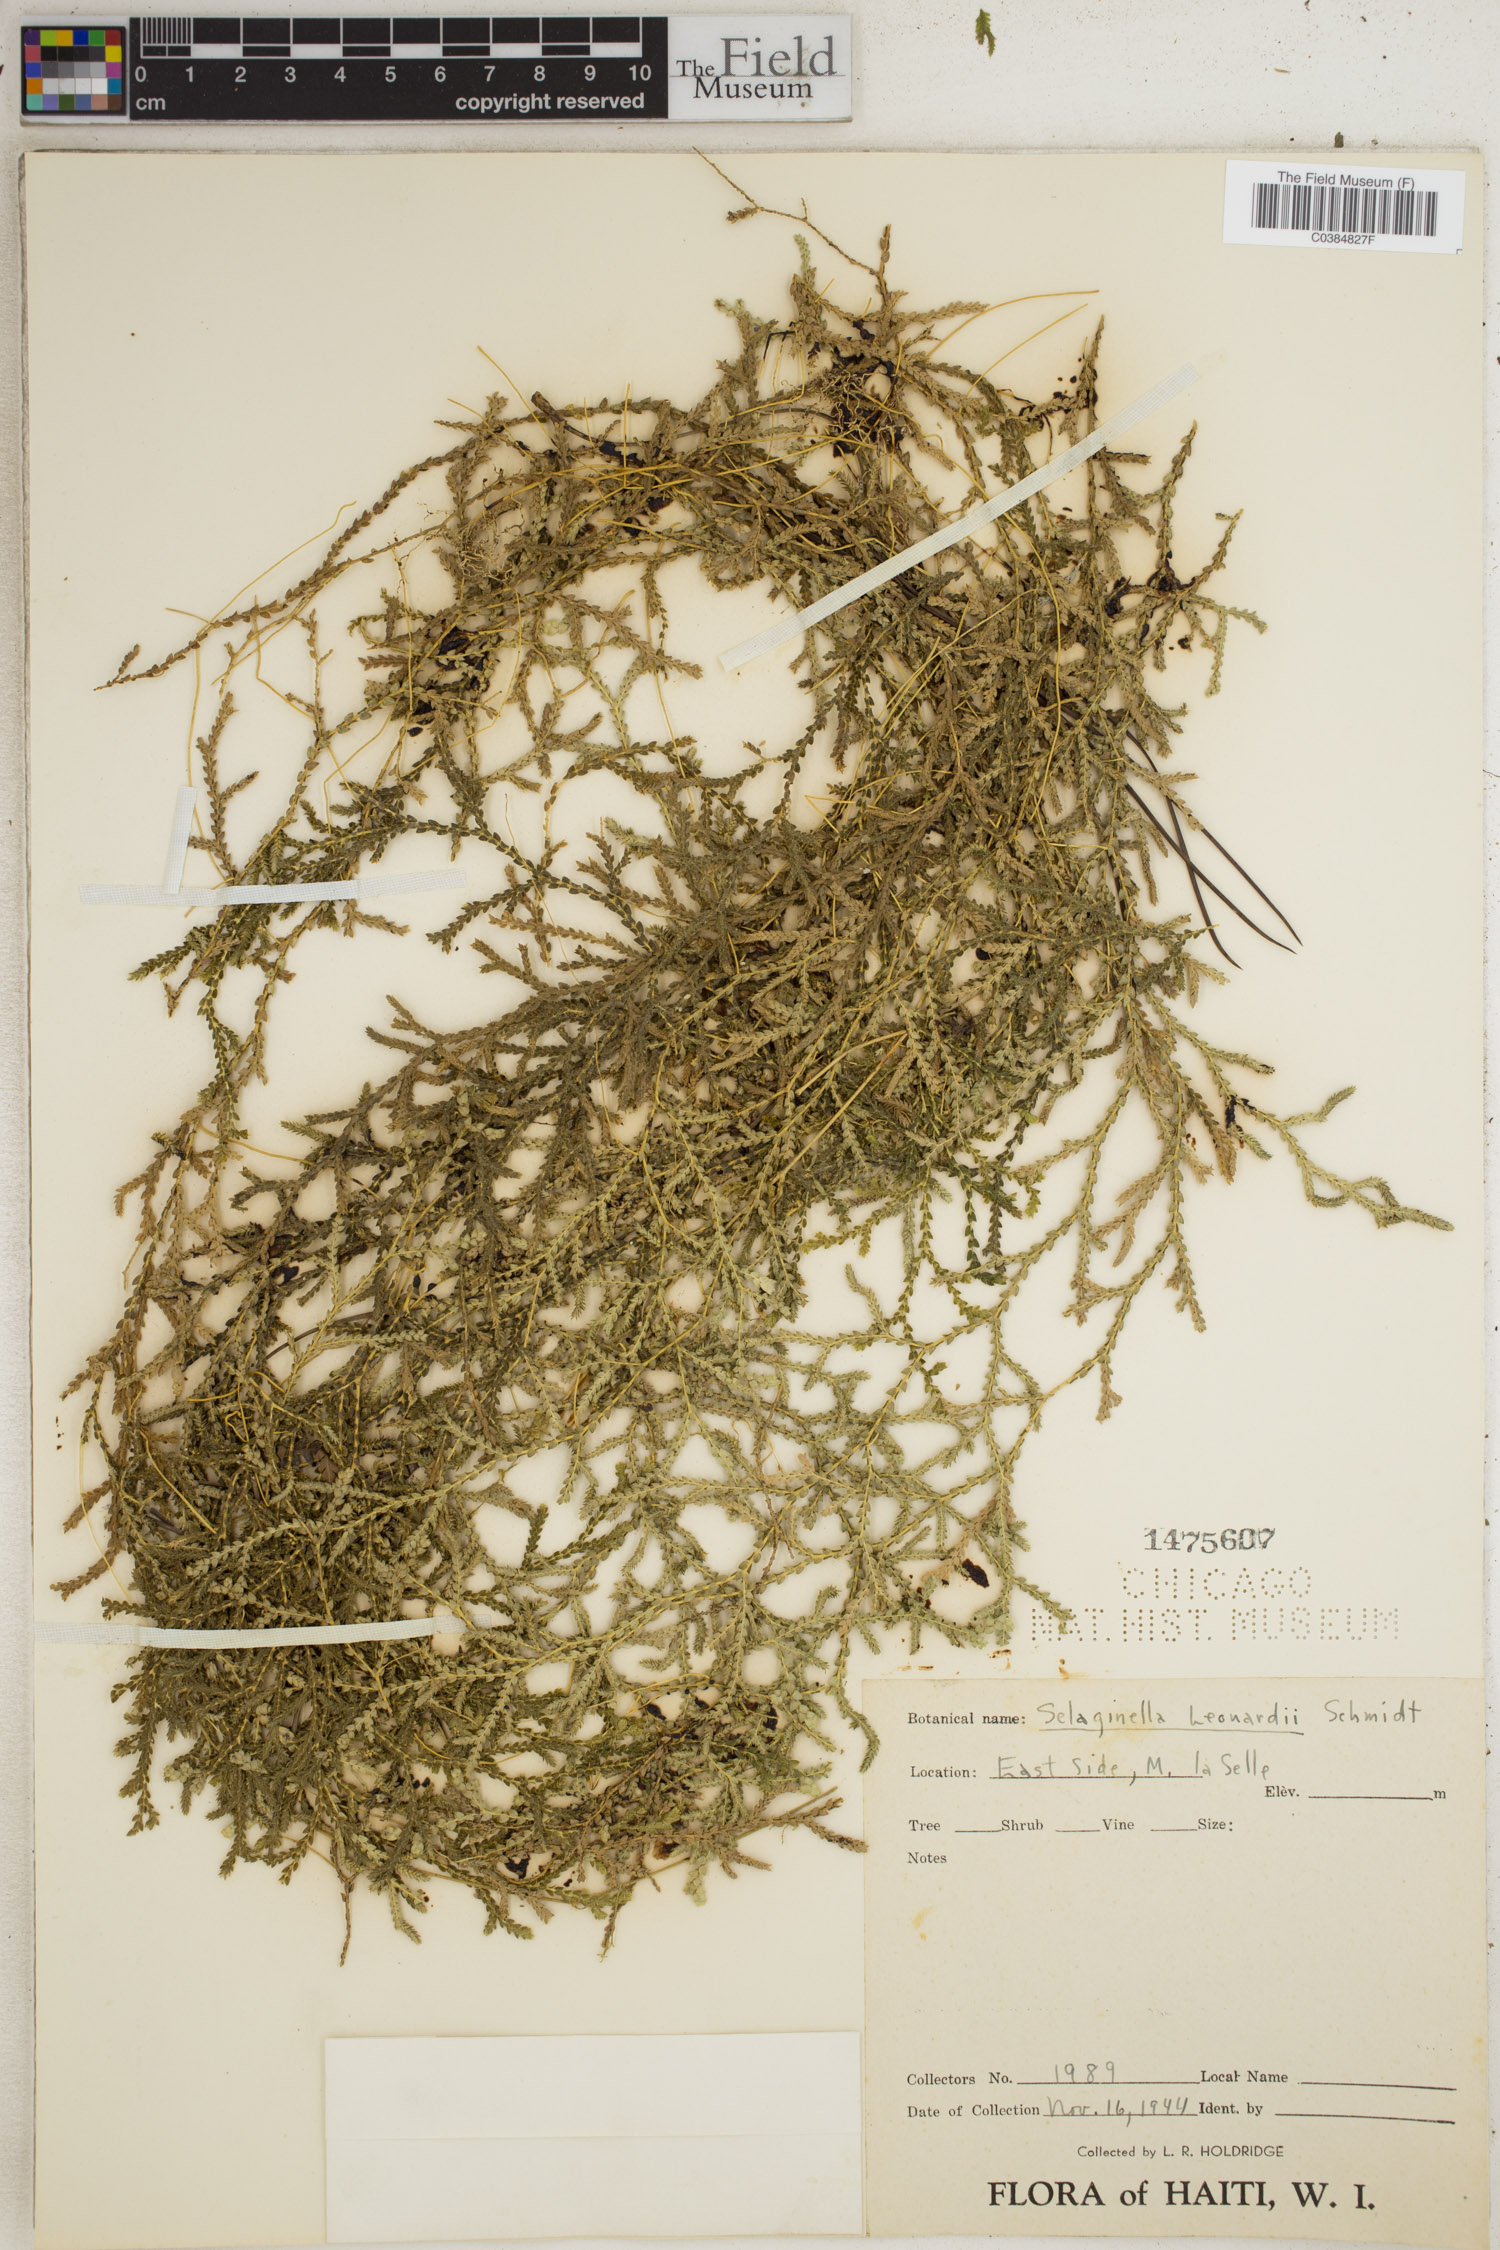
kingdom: Plantae
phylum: Tracheophyta
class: Lycopodiopsida
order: Selaginellales
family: Selaginellaceae
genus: Selaginella
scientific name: Selaginella leonardii
